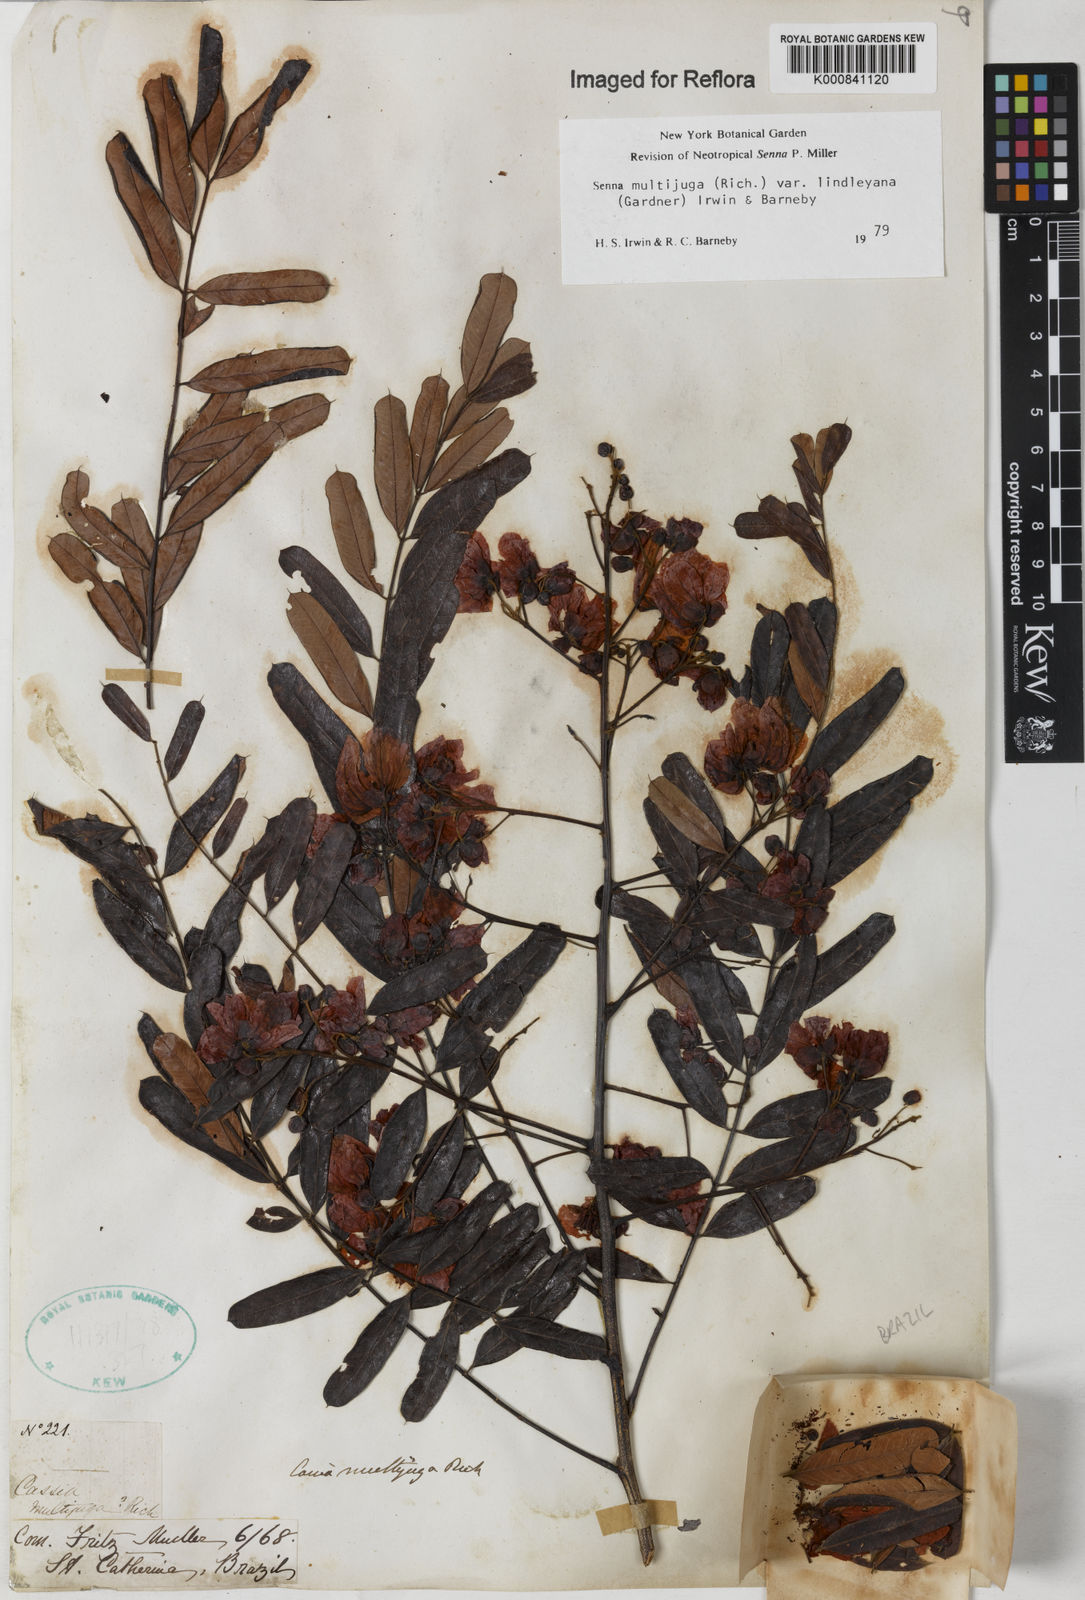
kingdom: Plantae
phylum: Tracheophyta
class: Magnoliopsida
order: Fabales
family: Fabaceae
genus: Senna
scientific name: Senna multijuga
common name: False sicklepod
